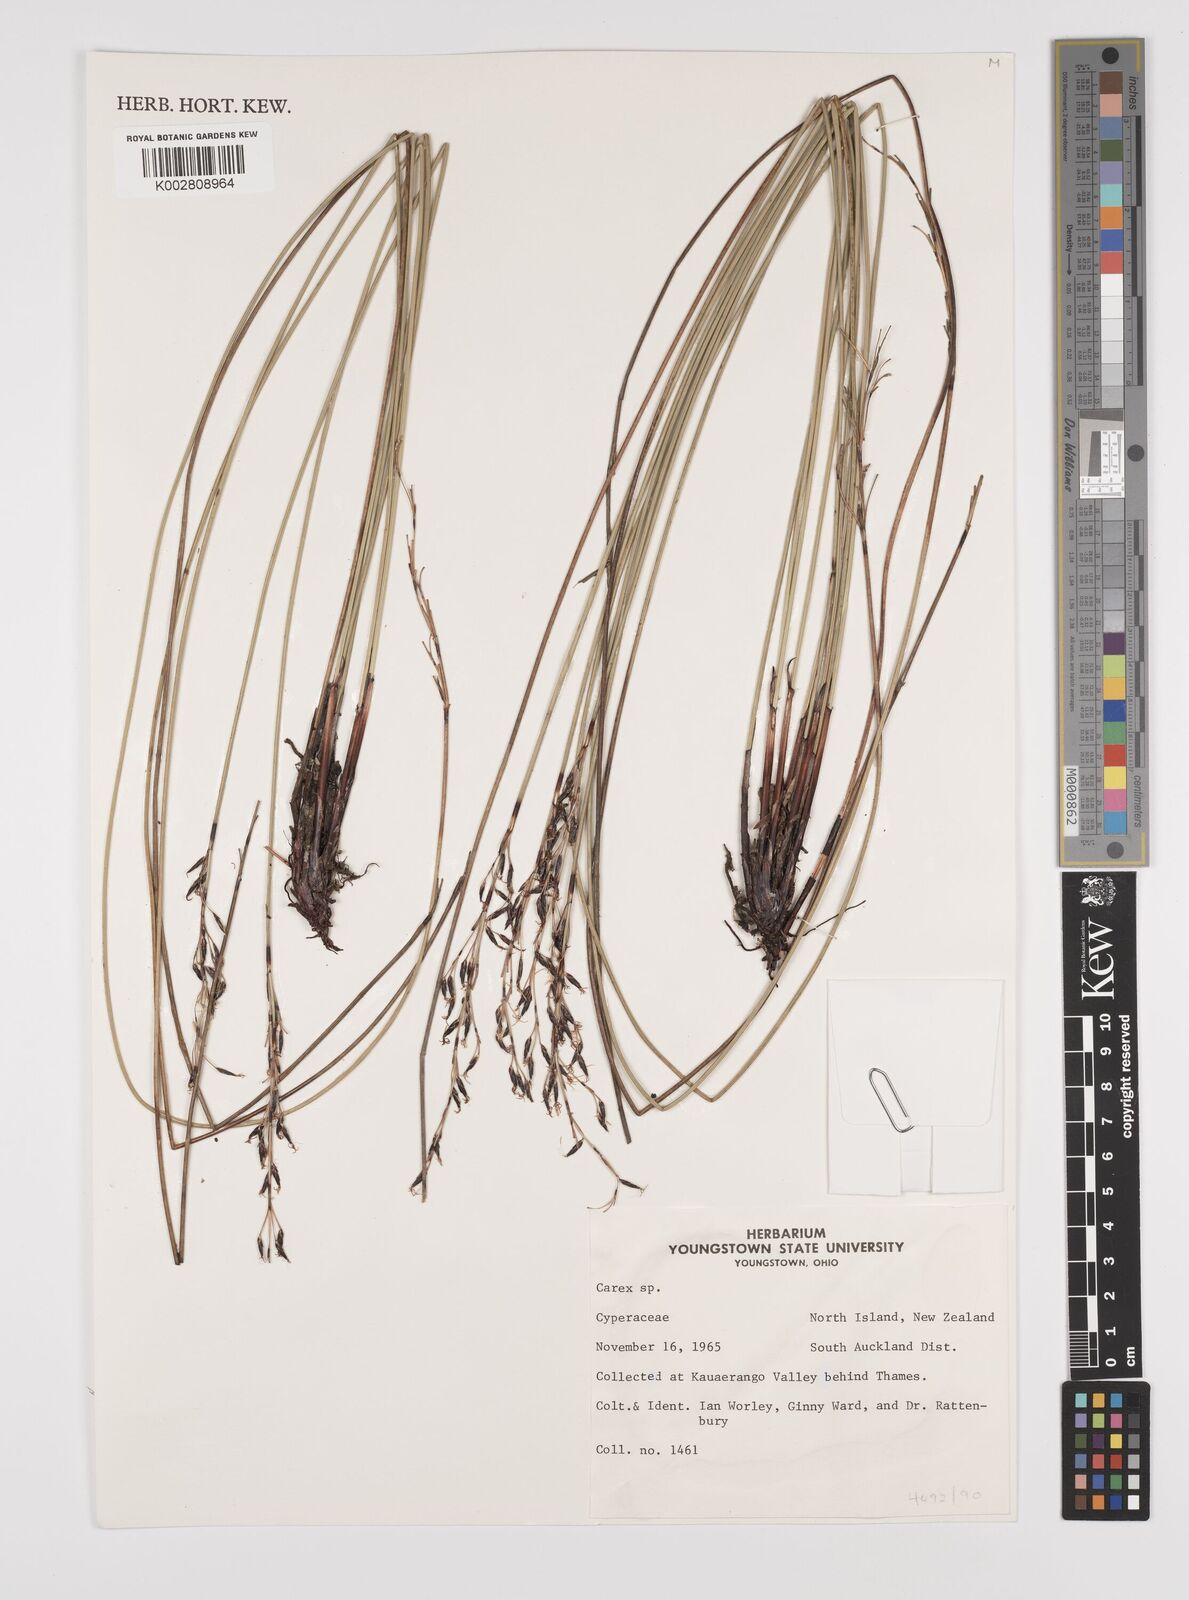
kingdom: Plantae
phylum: Tracheophyta
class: Liliopsida
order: Poales
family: Cyperaceae
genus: Carex
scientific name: Carex
